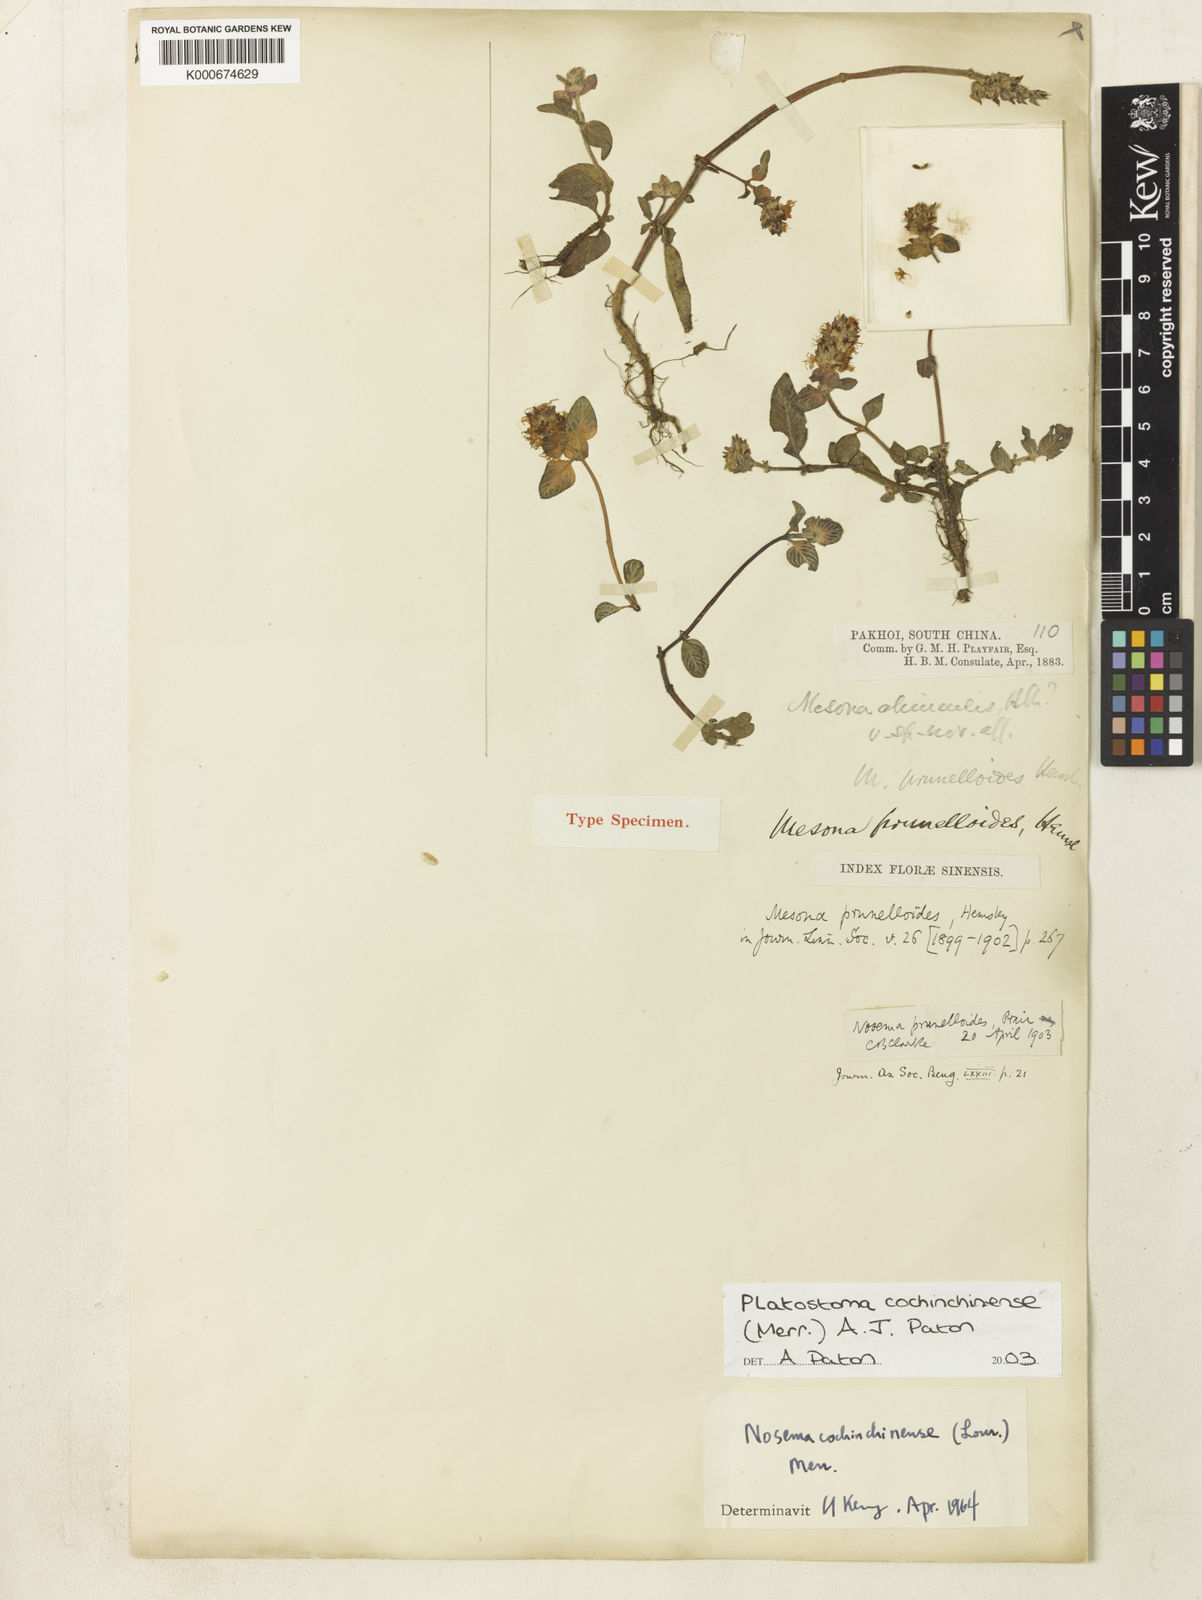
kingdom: Plantae
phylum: Tracheophyta
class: Magnoliopsida
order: Lamiales
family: Lamiaceae
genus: Platostoma
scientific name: Platostoma cochinchinense
